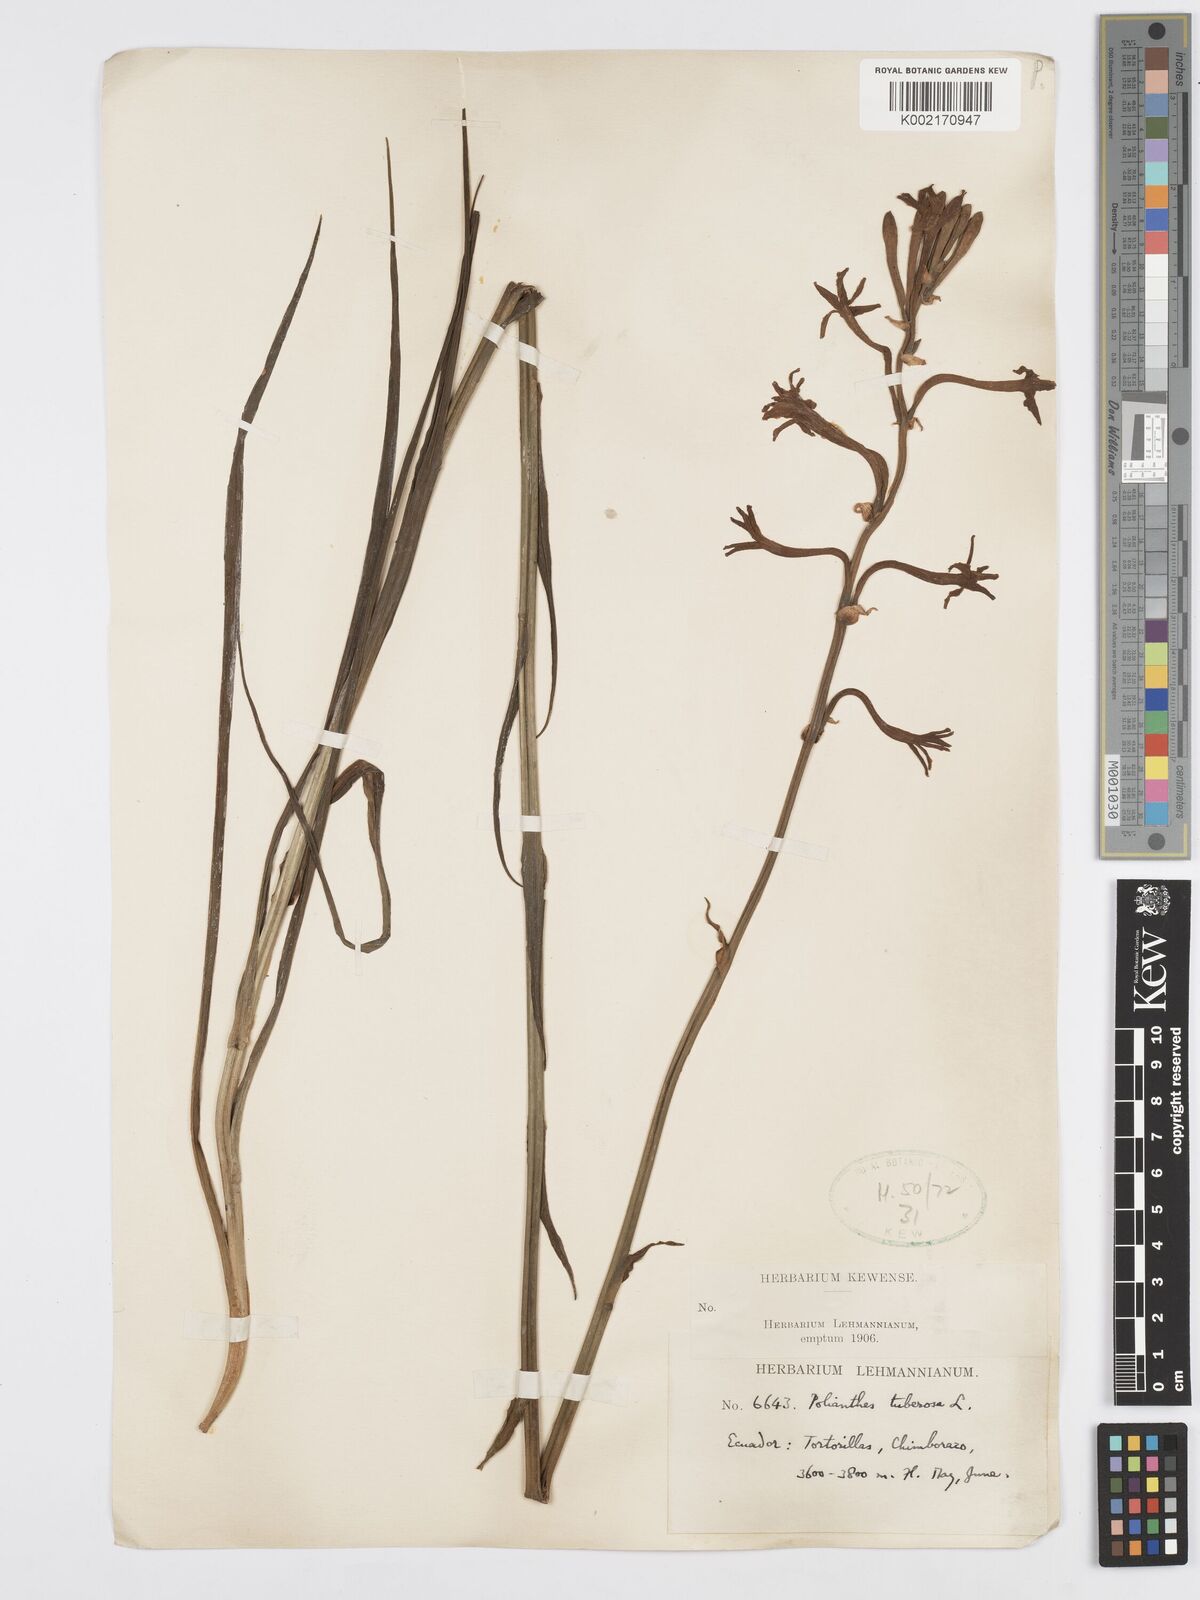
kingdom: Plantae
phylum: Tracheophyta
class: Liliopsida
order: Asparagales
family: Asparagaceae
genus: Agave
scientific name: Agave amica
